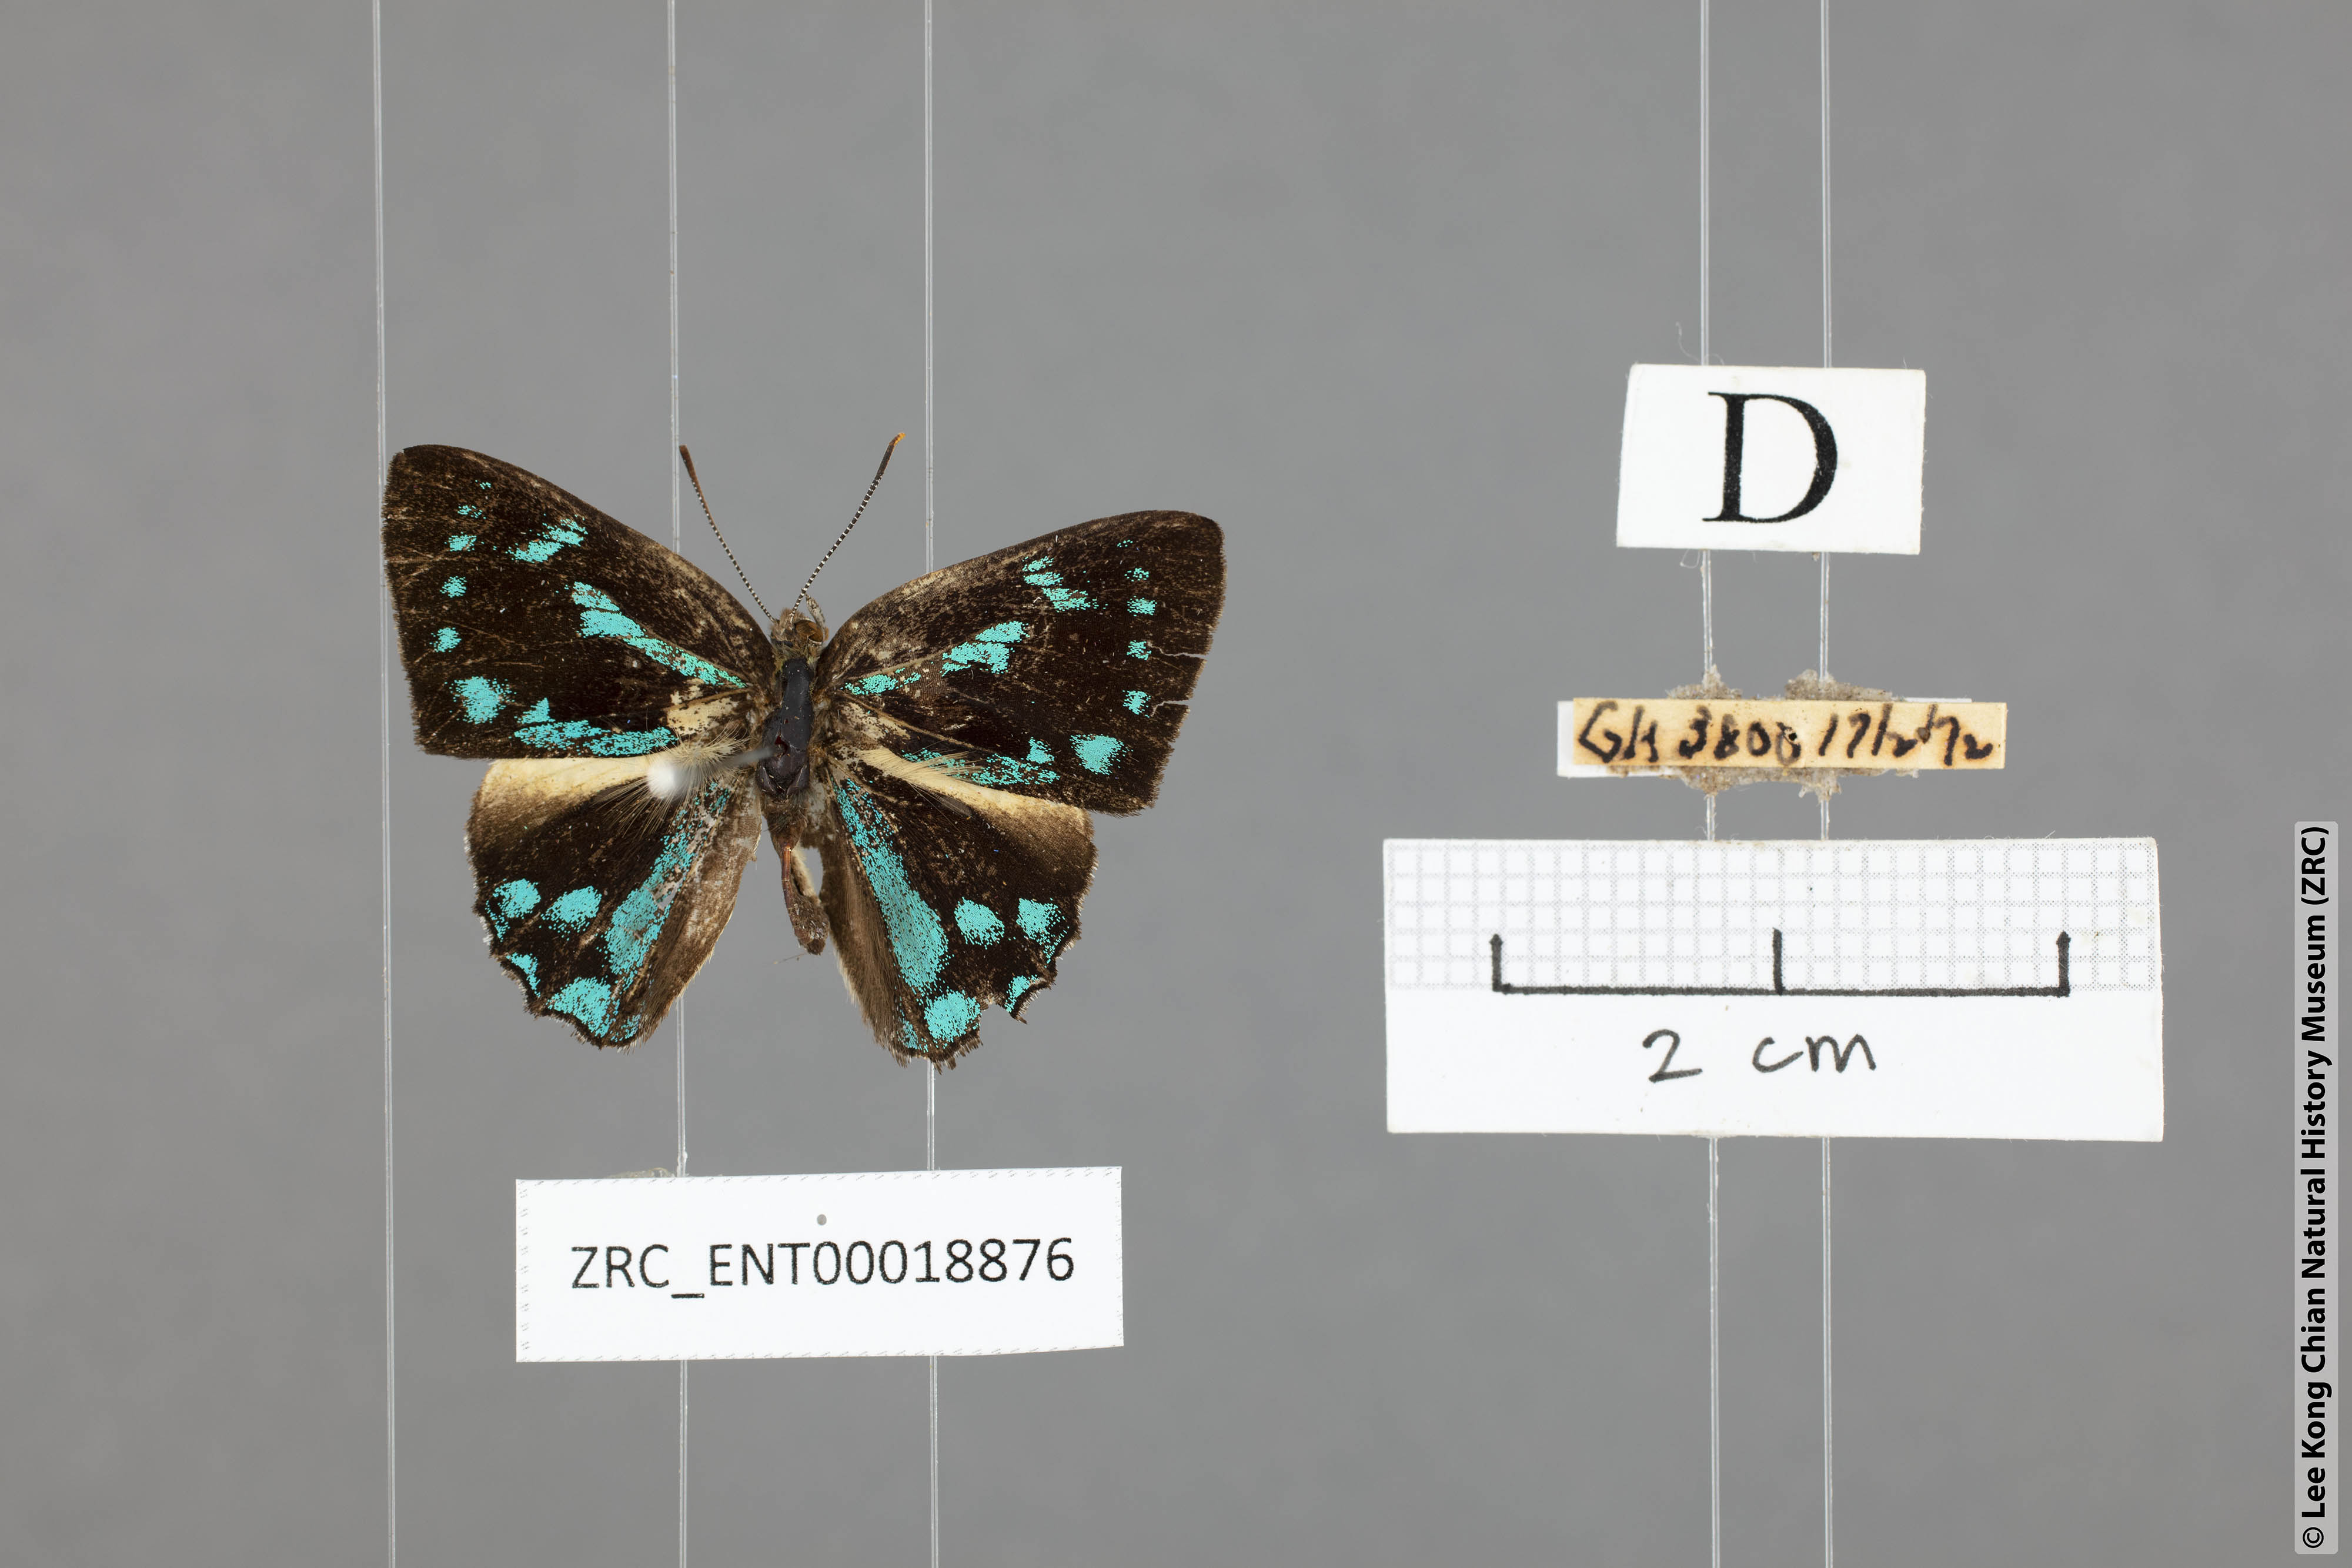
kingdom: Animalia
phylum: Arthropoda
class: Insecta
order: Lepidoptera
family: Lycaenidae
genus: Simiskina
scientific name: Simiskina
